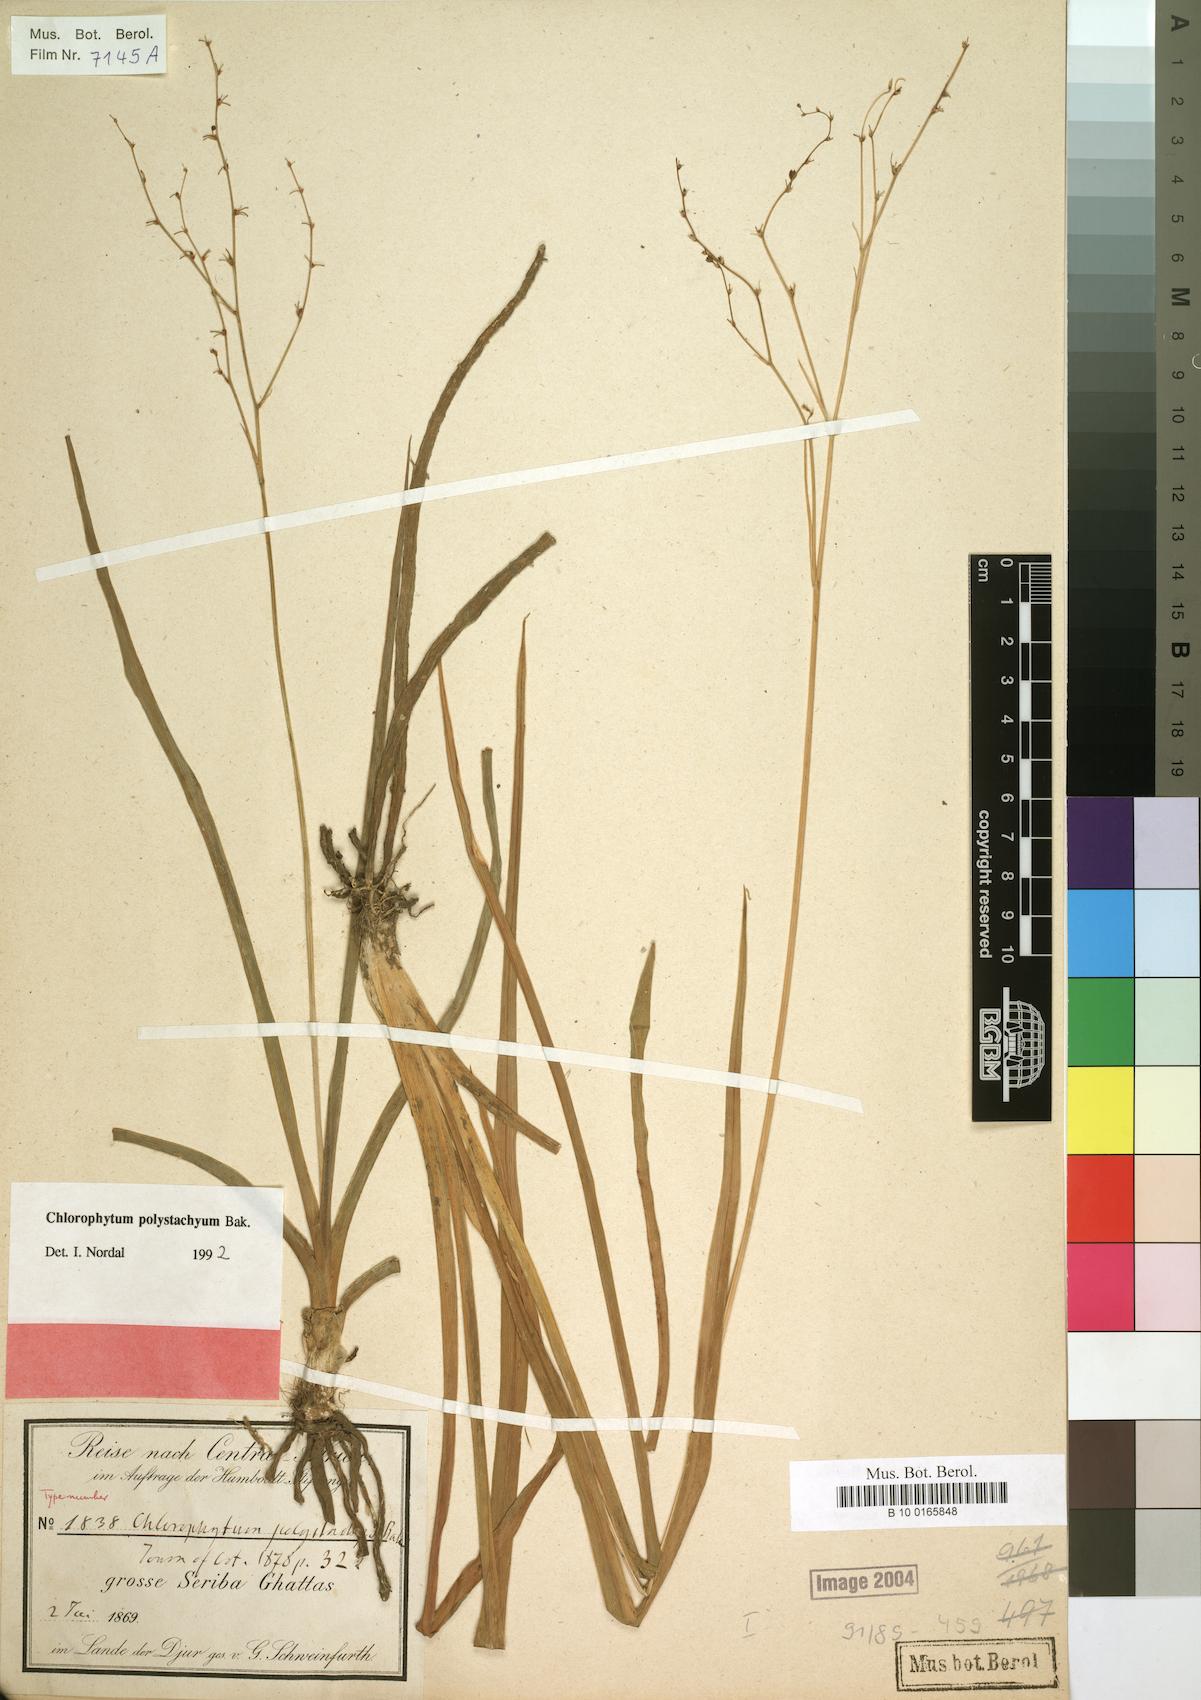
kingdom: Plantae
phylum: Tracheophyta
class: Liliopsida
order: Asparagales
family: Asparagaceae
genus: Chlorophytum
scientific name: Chlorophytum polystachys
